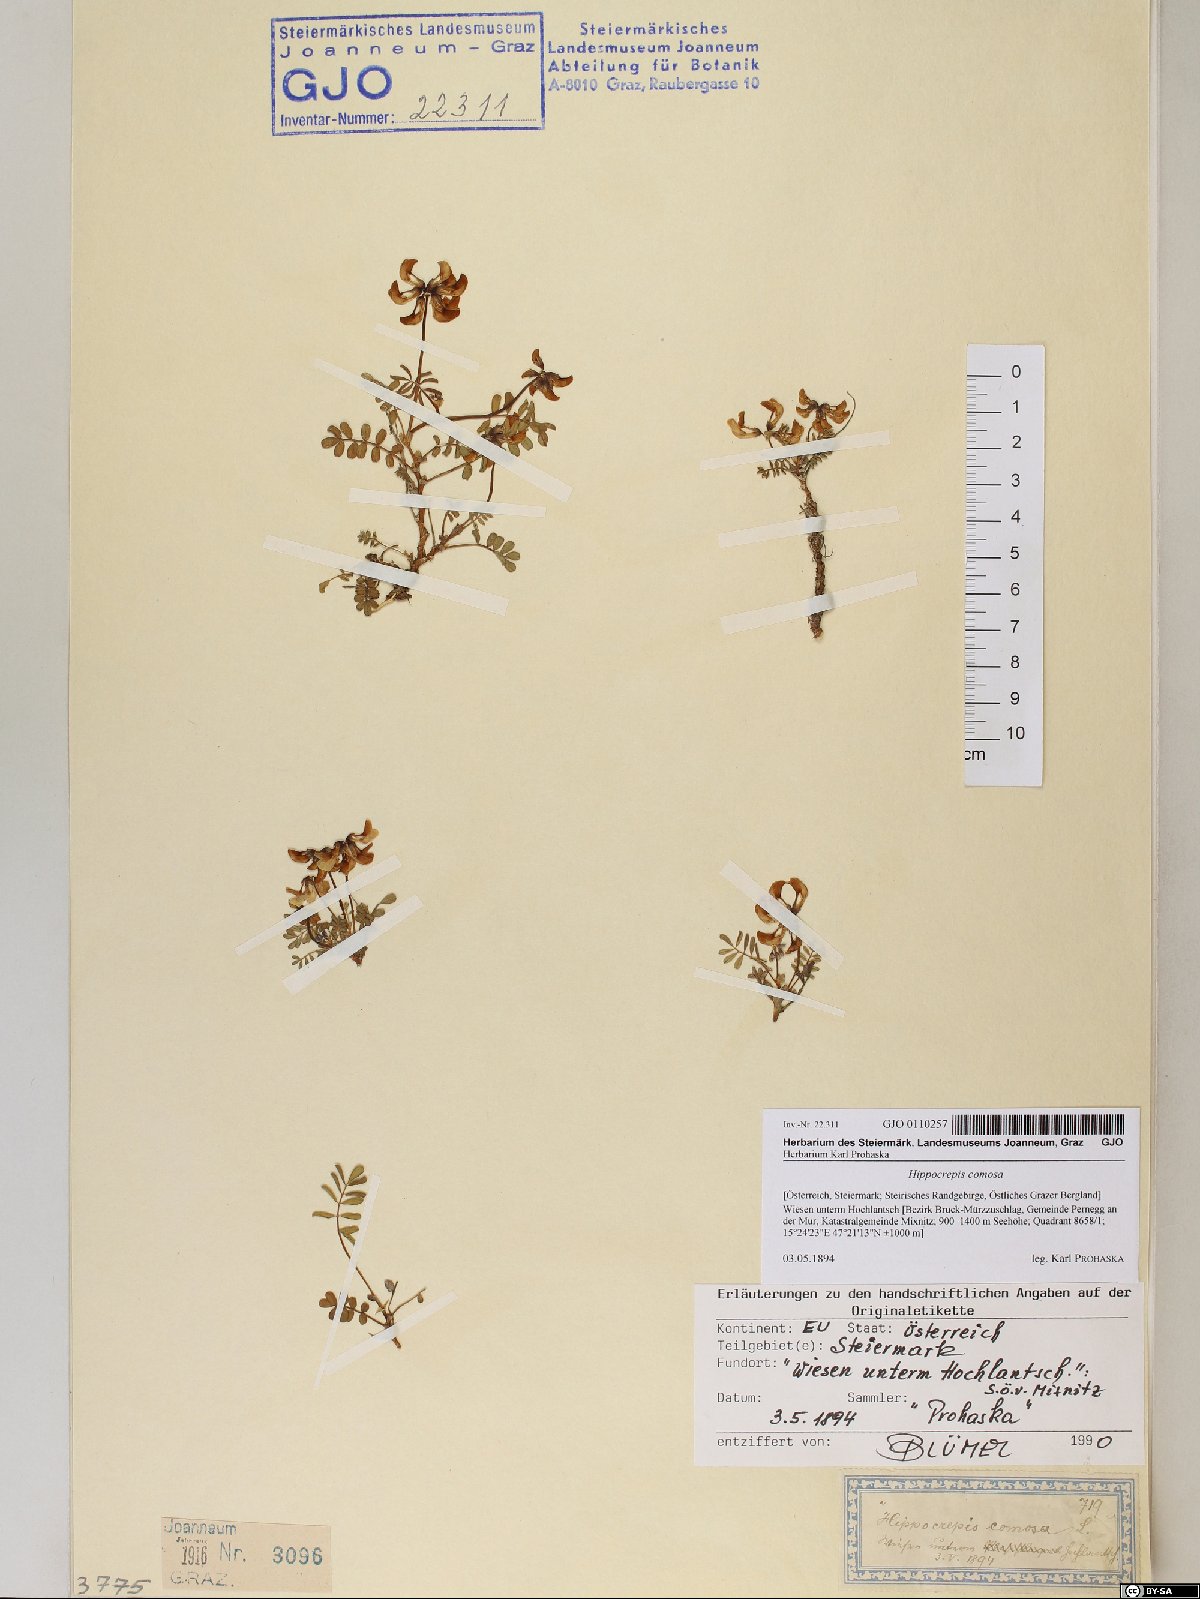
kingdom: Plantae
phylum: Tracheophyta
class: Magnoliopsida
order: Fabales
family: Fabaceae
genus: Hippocrepis
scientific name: Hippocrepis comosa
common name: Horseshoe vetch
